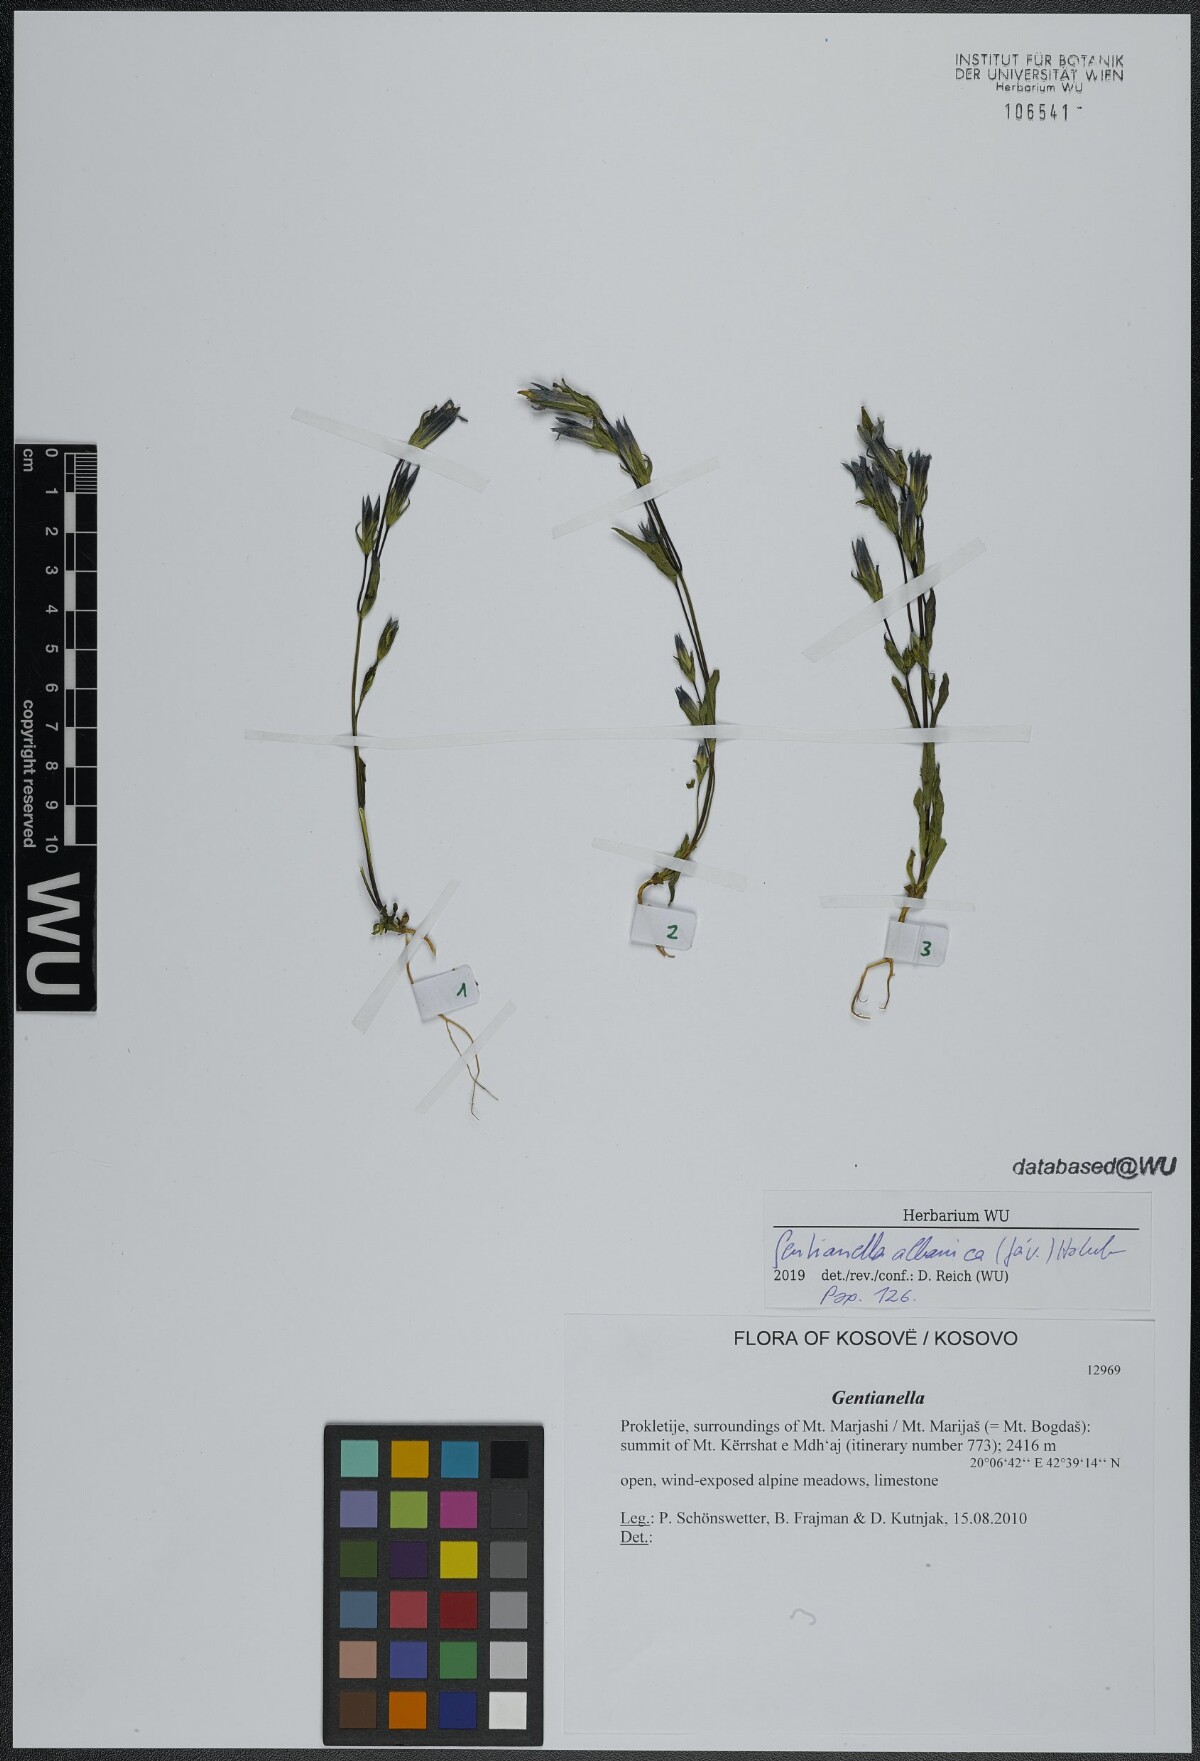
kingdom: Plantae
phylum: Tracheophyta
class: Magnoliopsida
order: Gentianales
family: Gentianaceae
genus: Gentianella
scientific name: Gentianella albanica
